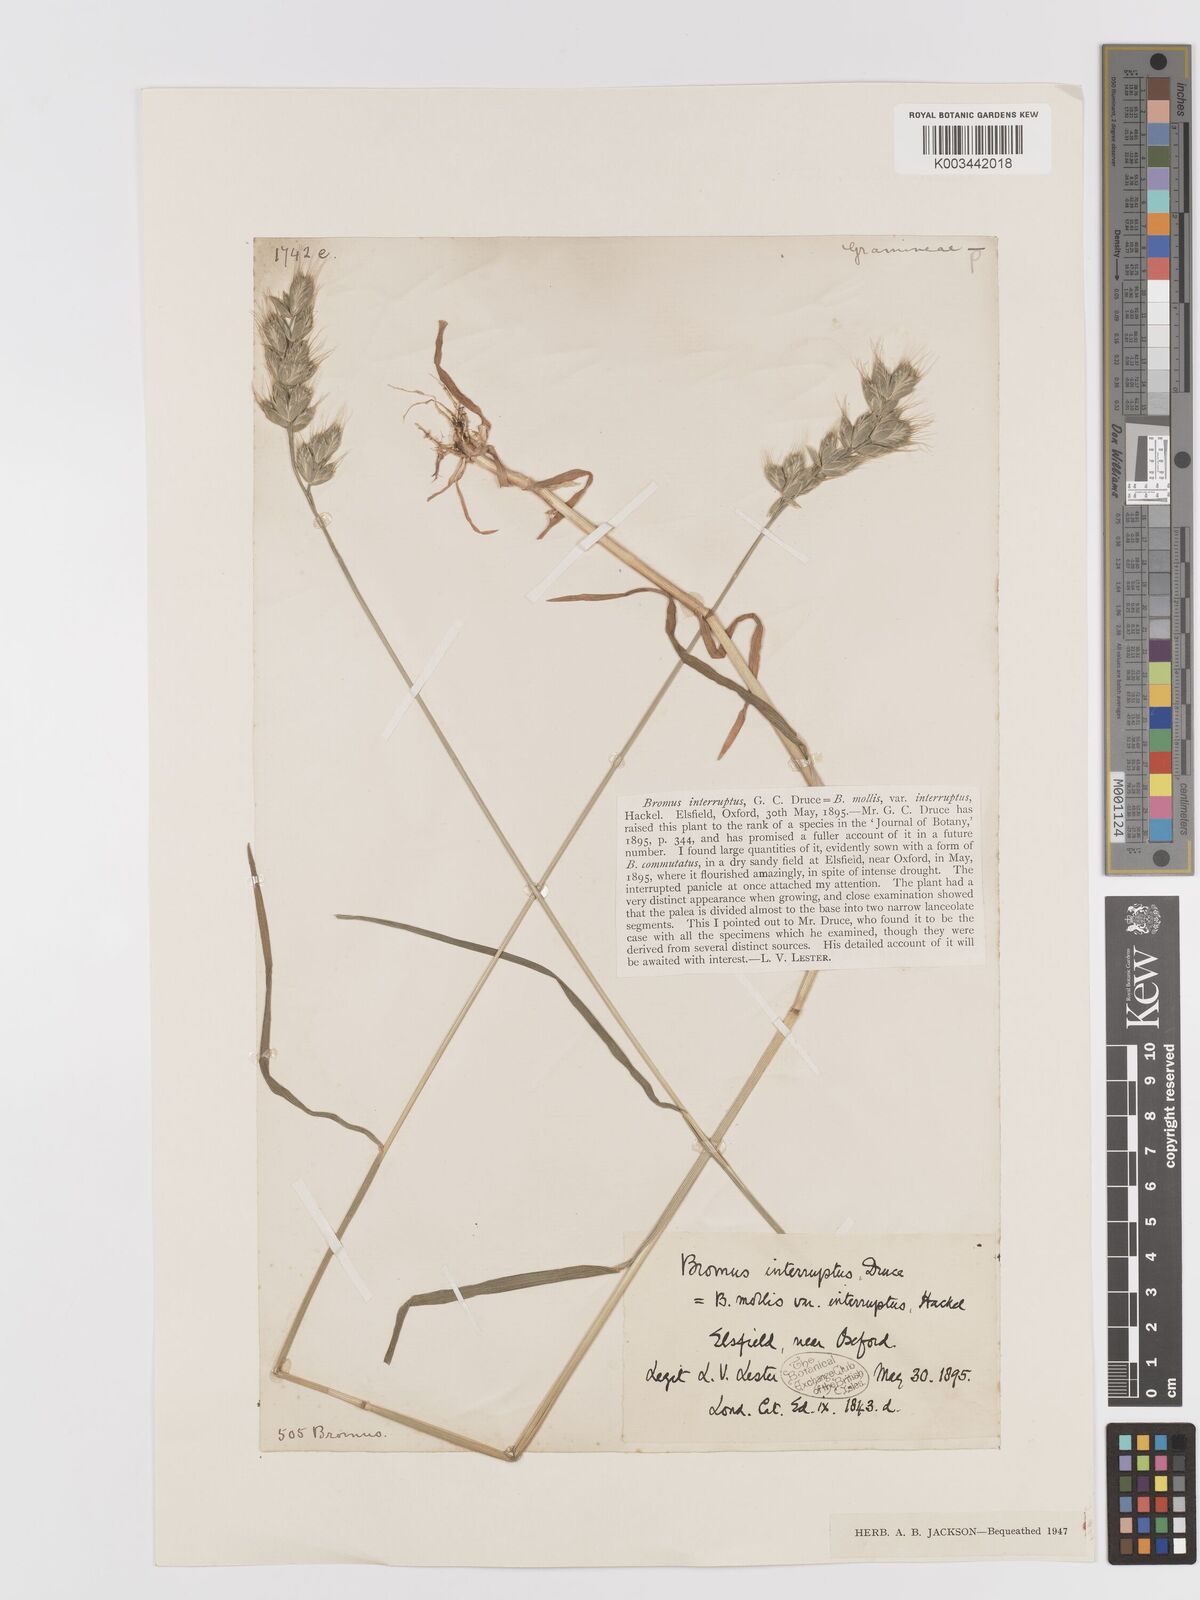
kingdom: Plantae
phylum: Tracheophyta
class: Liliopsida
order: Poales
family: Poaceae
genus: Bromus
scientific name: Bromus interruptus
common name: Interrupted brome
